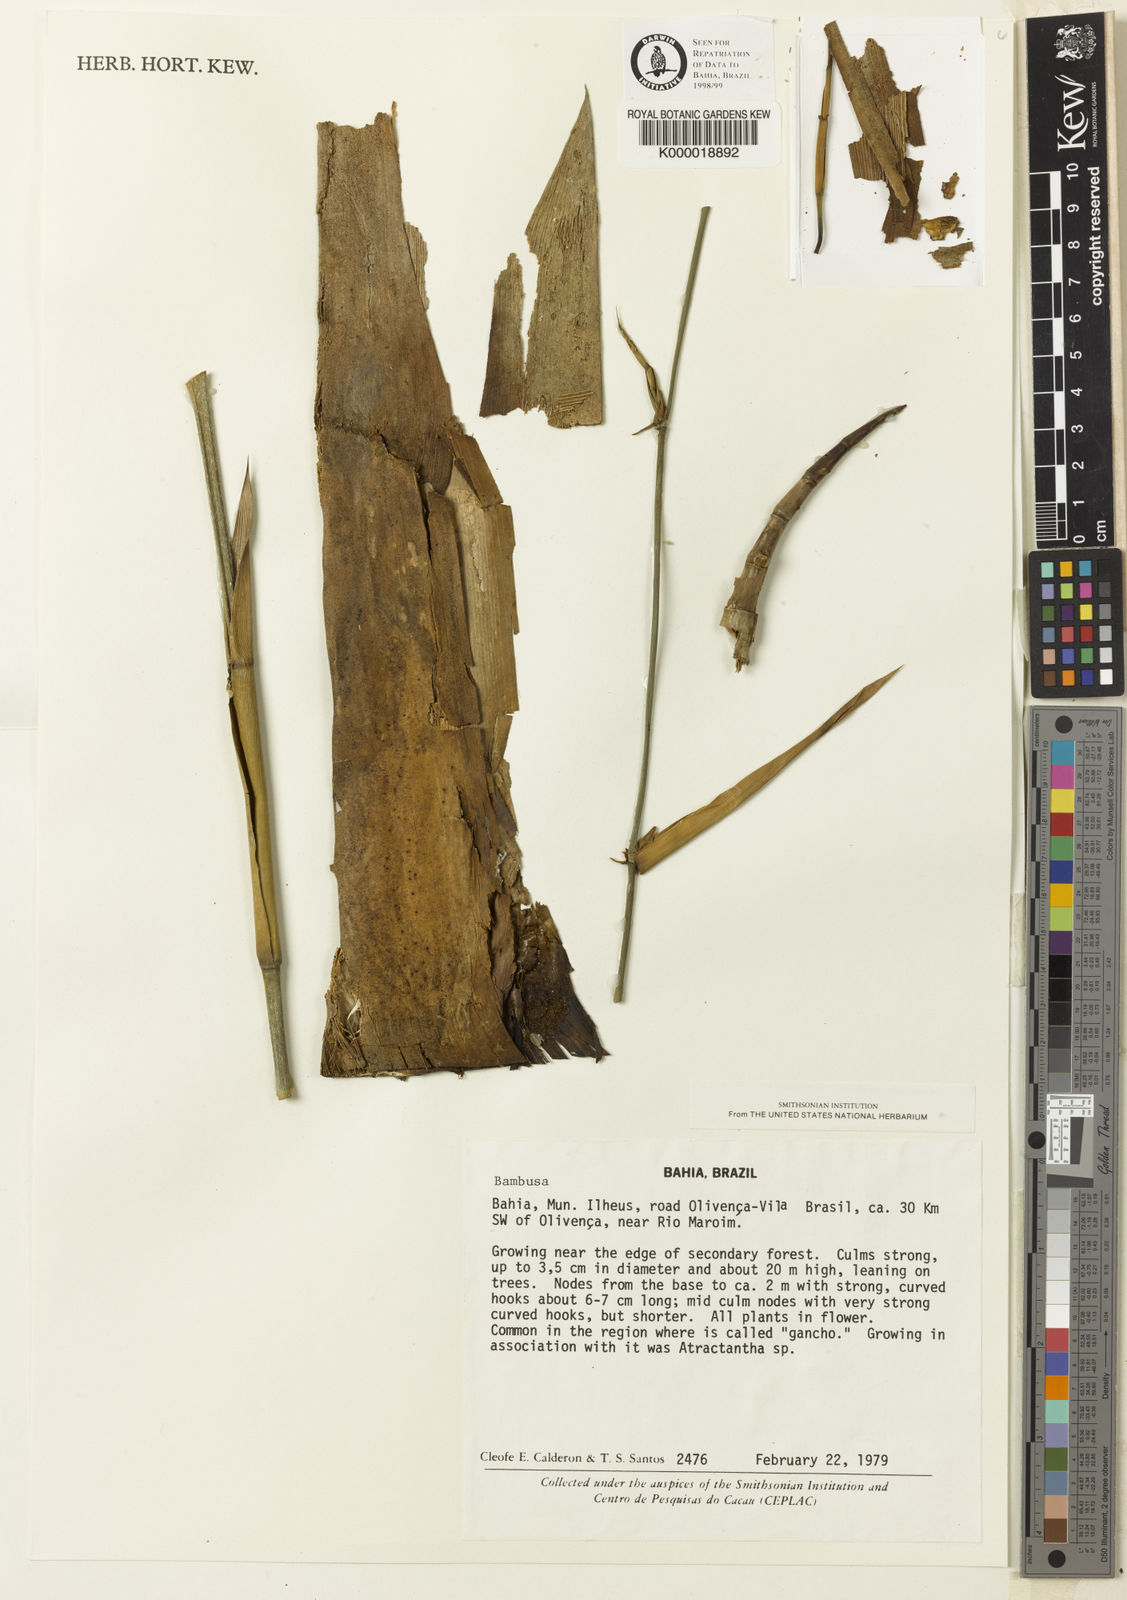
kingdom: Plantae
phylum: Tracheophyta
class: Liliopsida
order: Poales
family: Poaceae
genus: Guadua
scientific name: Guadua calderoniana
